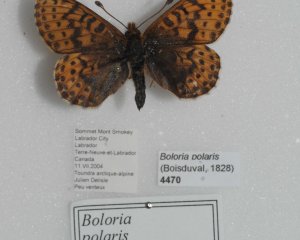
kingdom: Animalia
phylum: Arthropoda
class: Insecta
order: Lepidoptera
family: Nymphalidae
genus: Clossiana
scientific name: Clossiana polaris
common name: Polaris Fritillary
